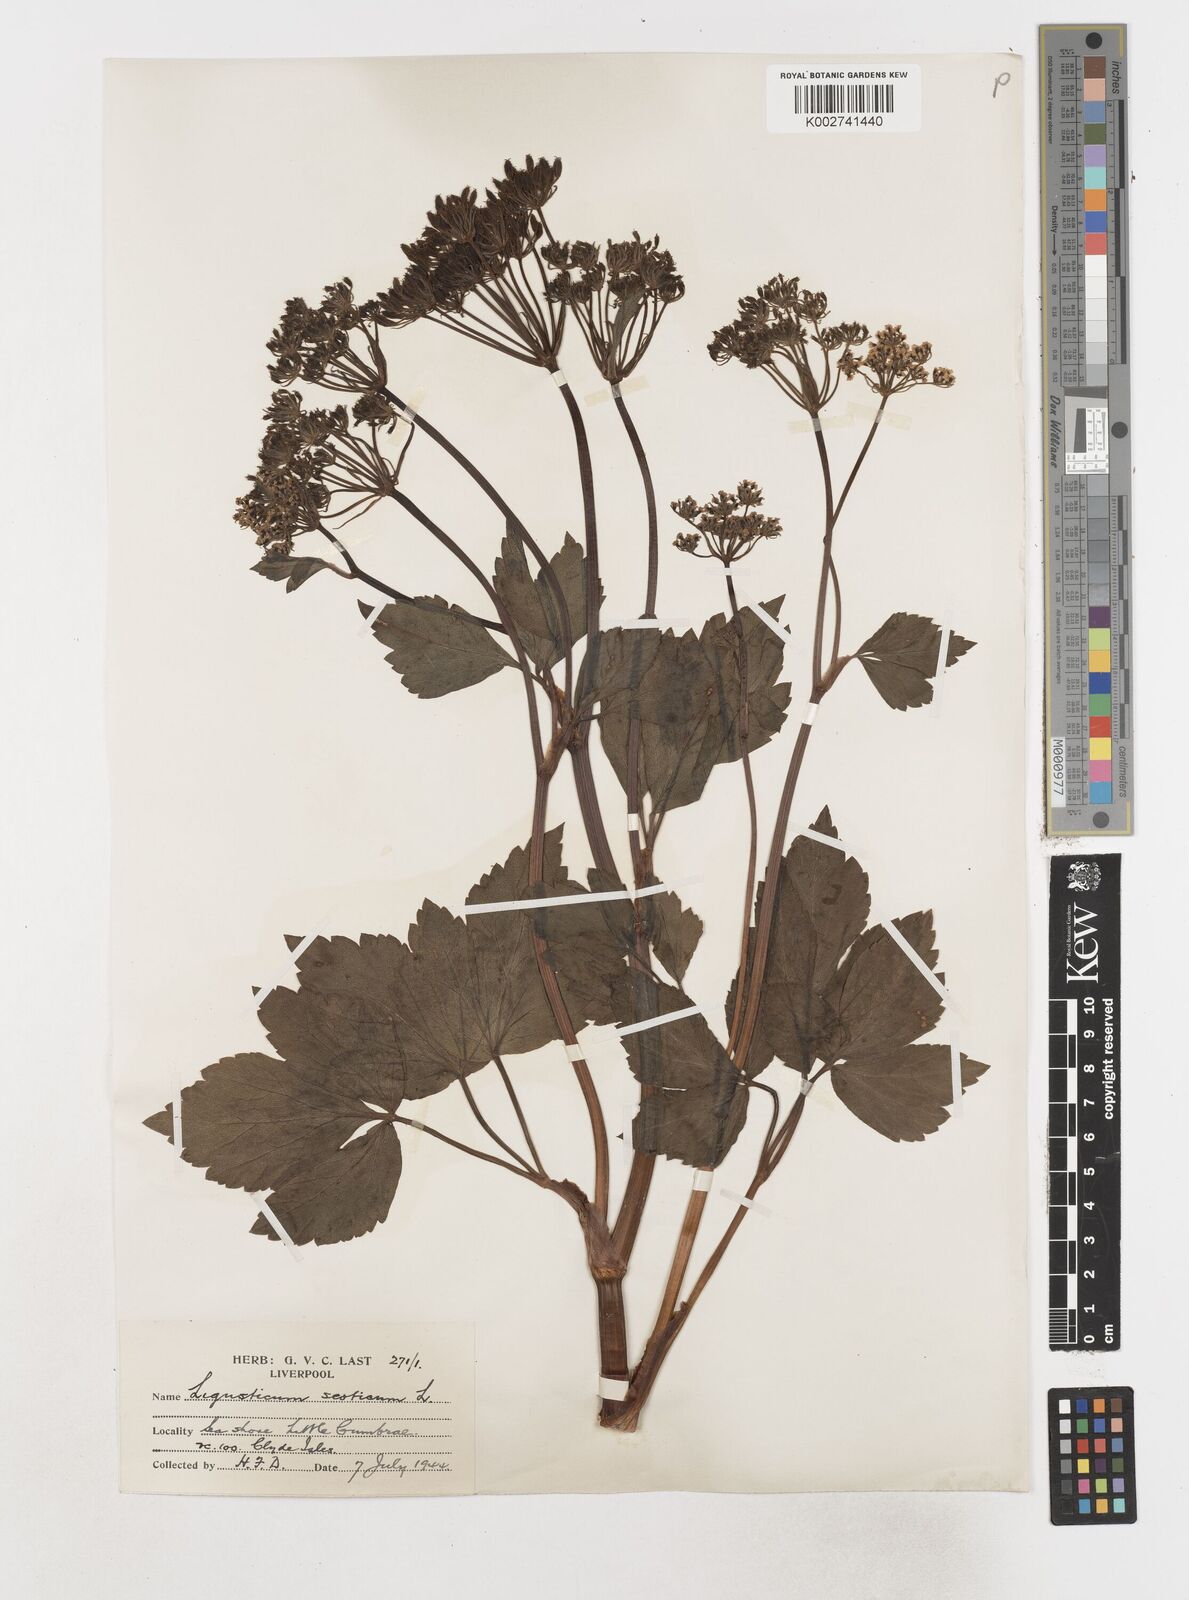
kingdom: Plantae
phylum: Tracheophyta
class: Magnoliopsida
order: Apiales
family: Apiaceae
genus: Ligusticum
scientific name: Ligusticum scothicum
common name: Beach lovage
